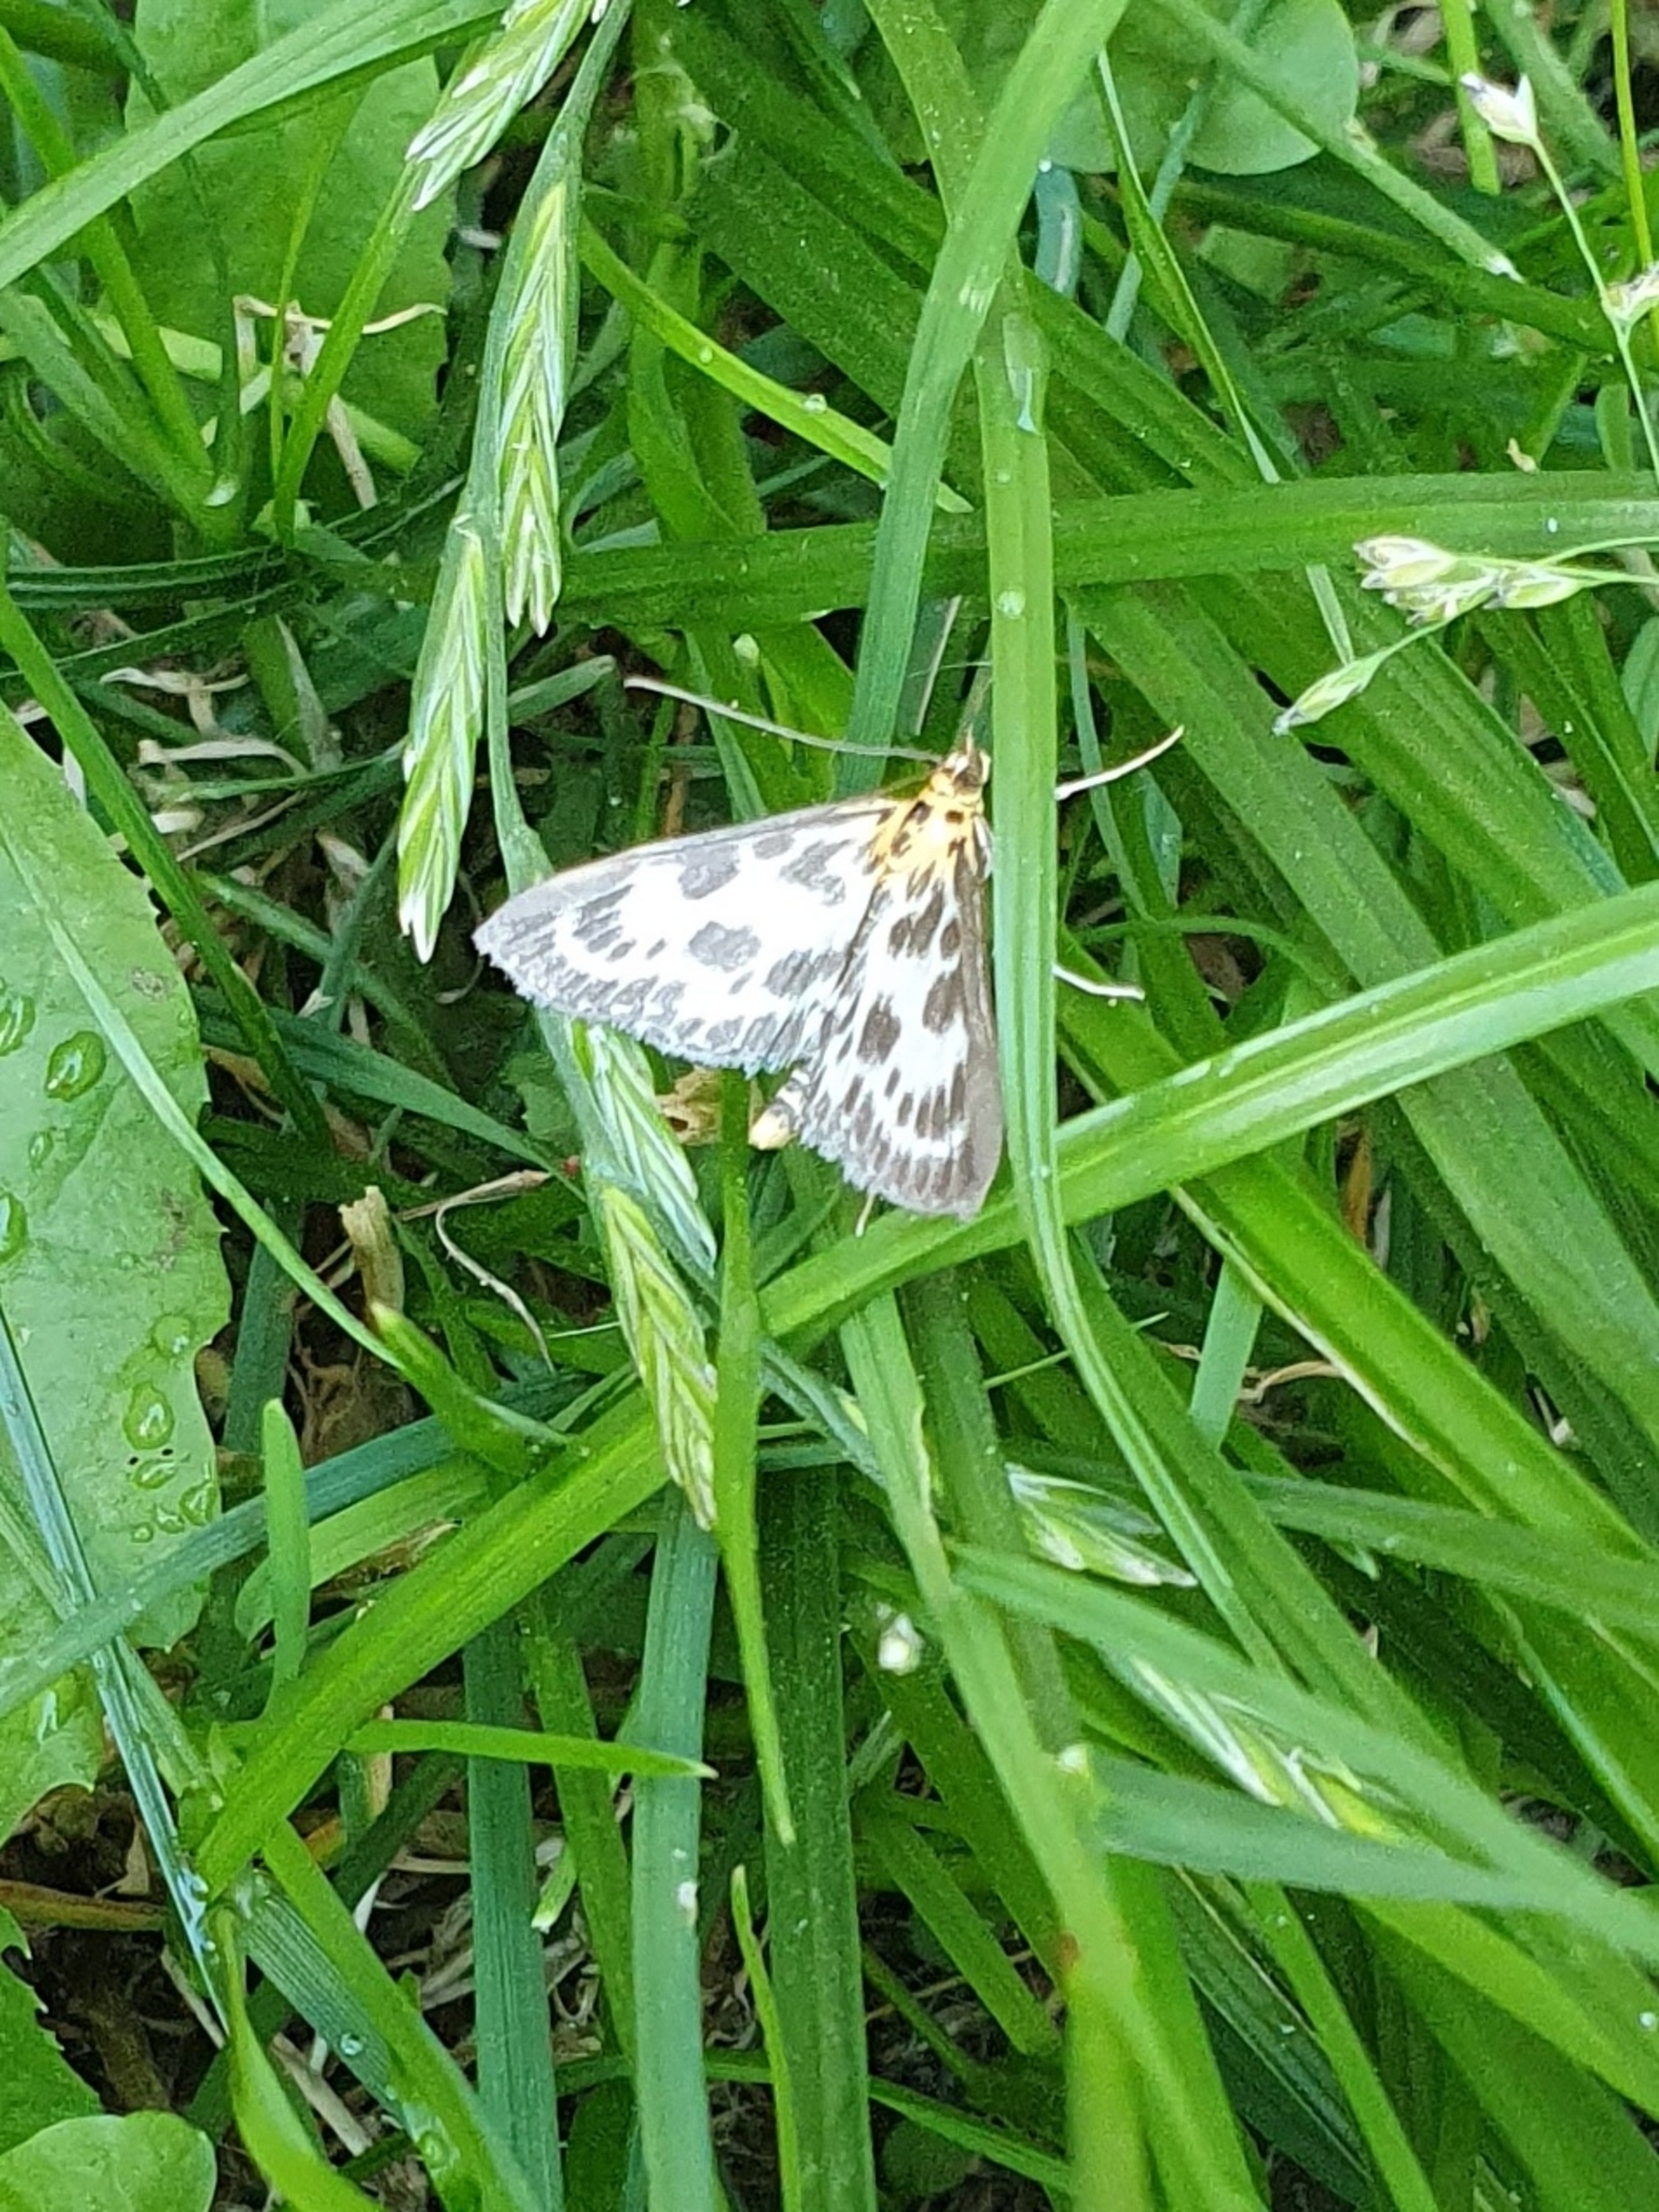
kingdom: Animalia
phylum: Arthropoda
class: Insecta
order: Lepidoptera
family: Crambidae
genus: Anania
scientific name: Anania hortulata
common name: Nældehalvmøl
